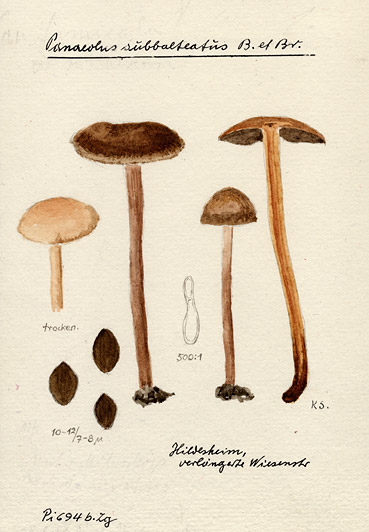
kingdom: Fungi
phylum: Basidiomycota
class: Agaricomycetes
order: Agaricales
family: Bolbitiaceae
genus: Panaeolus
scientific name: Panaeolus subbalteatus
